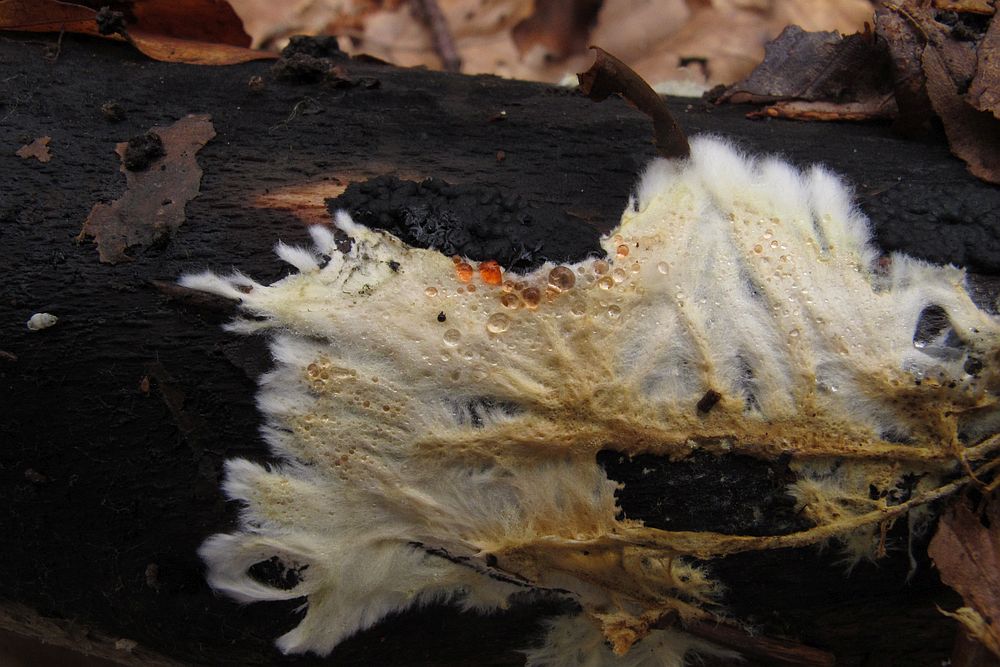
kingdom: Fungi
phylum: Ascomycota
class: Sordariomycetes
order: Xylariales
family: Xylariaceae
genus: Nemania
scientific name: Nemania serpens
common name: almindelig kuldyne
